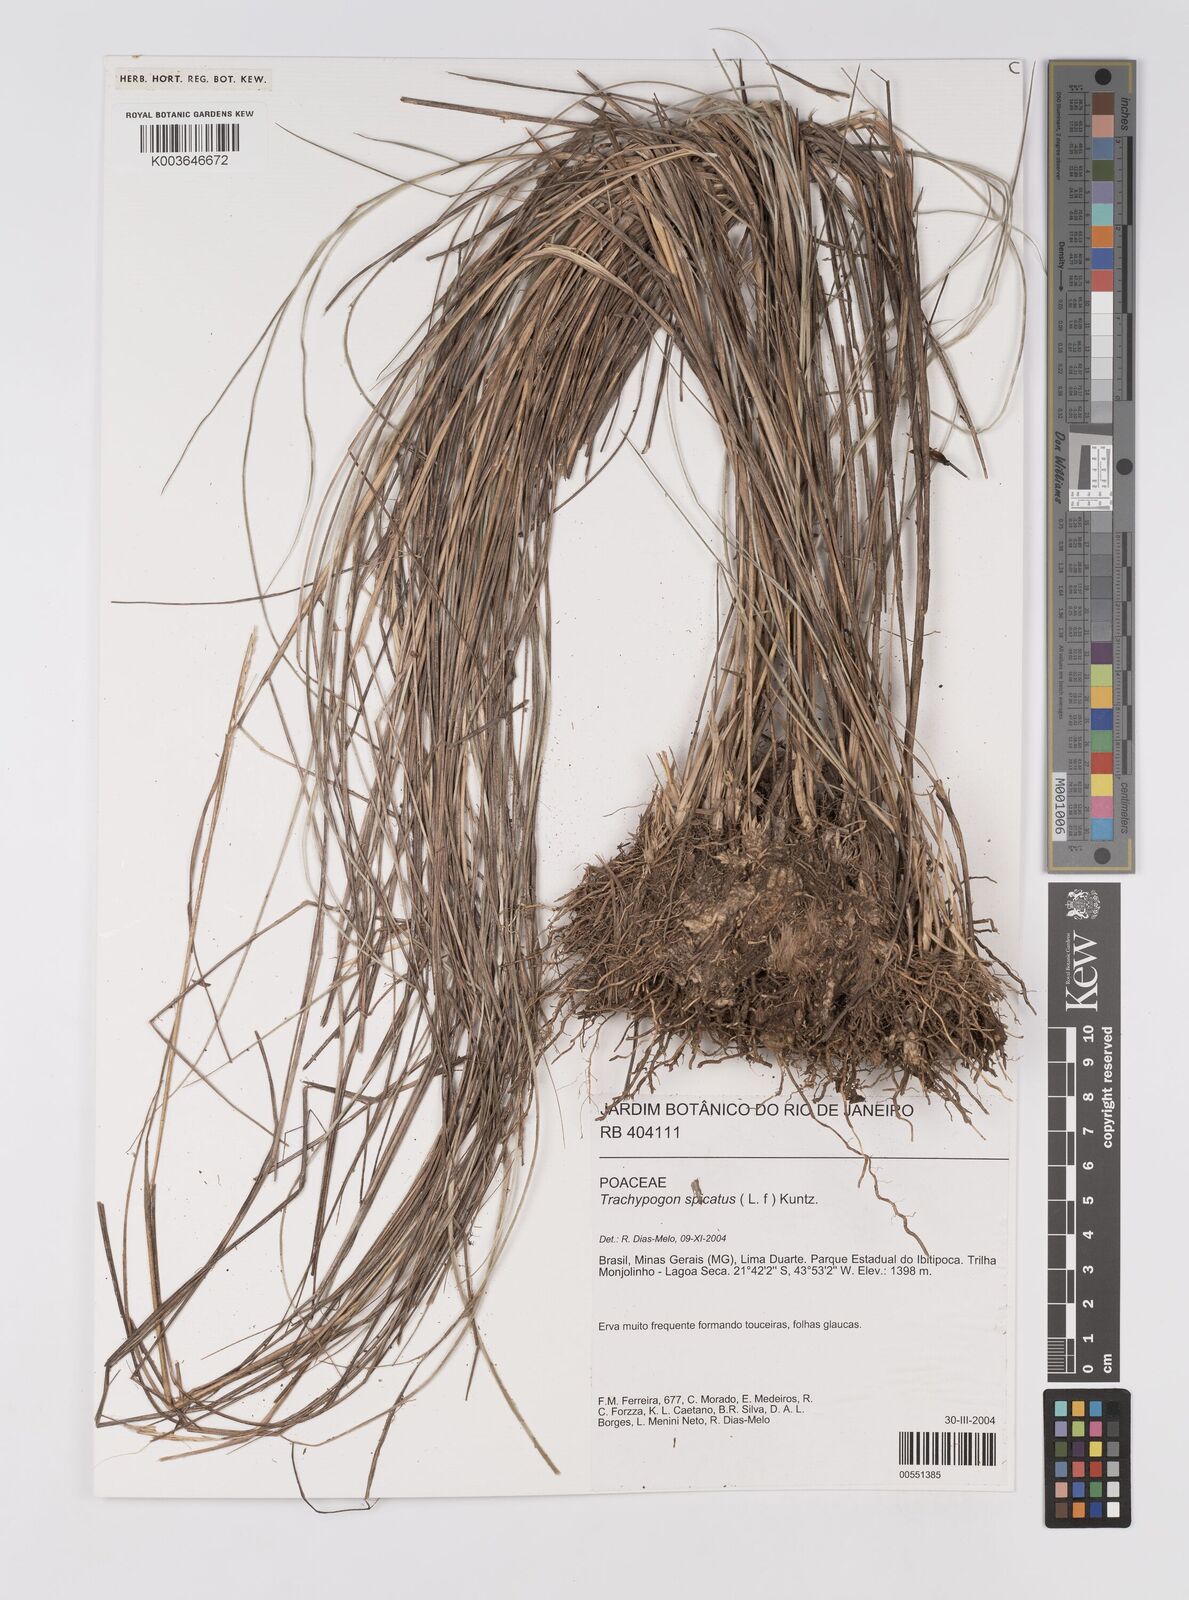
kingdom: Plantae
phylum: Tracheophyta
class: Liliopsida
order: Poales
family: Poaceae
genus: Trachypogon
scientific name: Trachypogon spicatus
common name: Crinkle-awn
